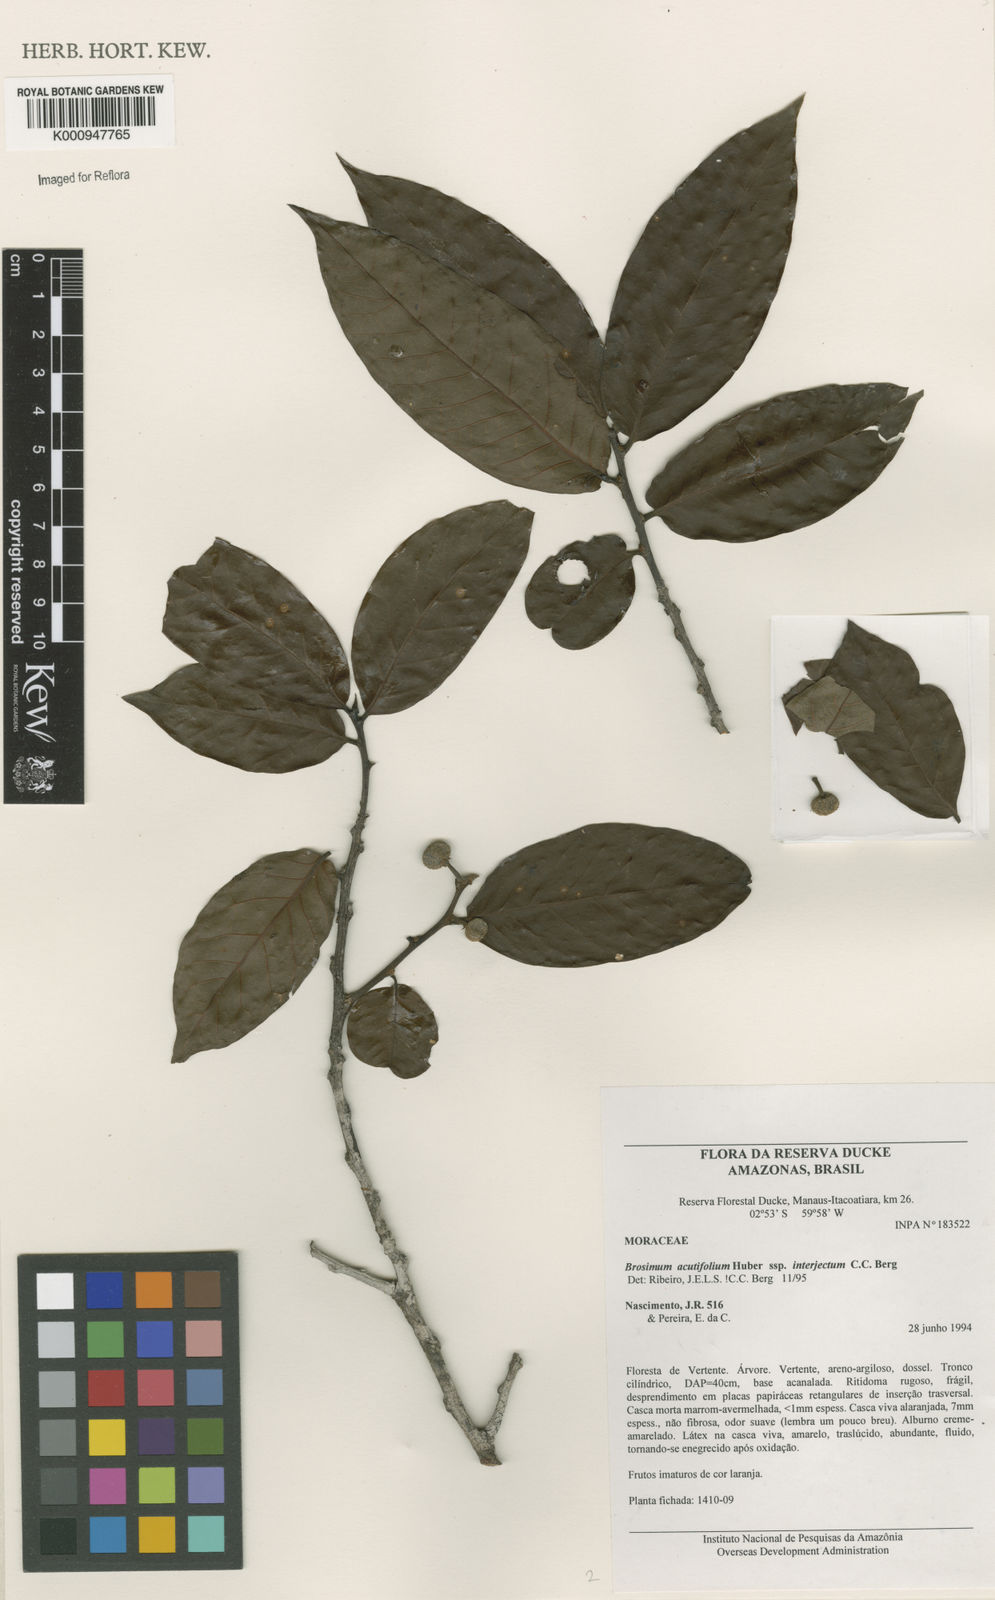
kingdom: Plantae
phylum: Tracheophyta
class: Magnoliopsida
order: Rosales
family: Moraceae
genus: Brosimum
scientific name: Brosimum acutifolium
